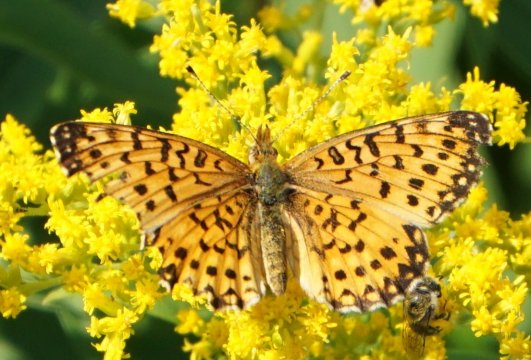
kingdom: Animalia
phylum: Arthropoda
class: Insecta
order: Lepidoptera
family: Nymphalidae
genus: Boloria
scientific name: Boloria selene
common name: Silver-bordered Fritillary
